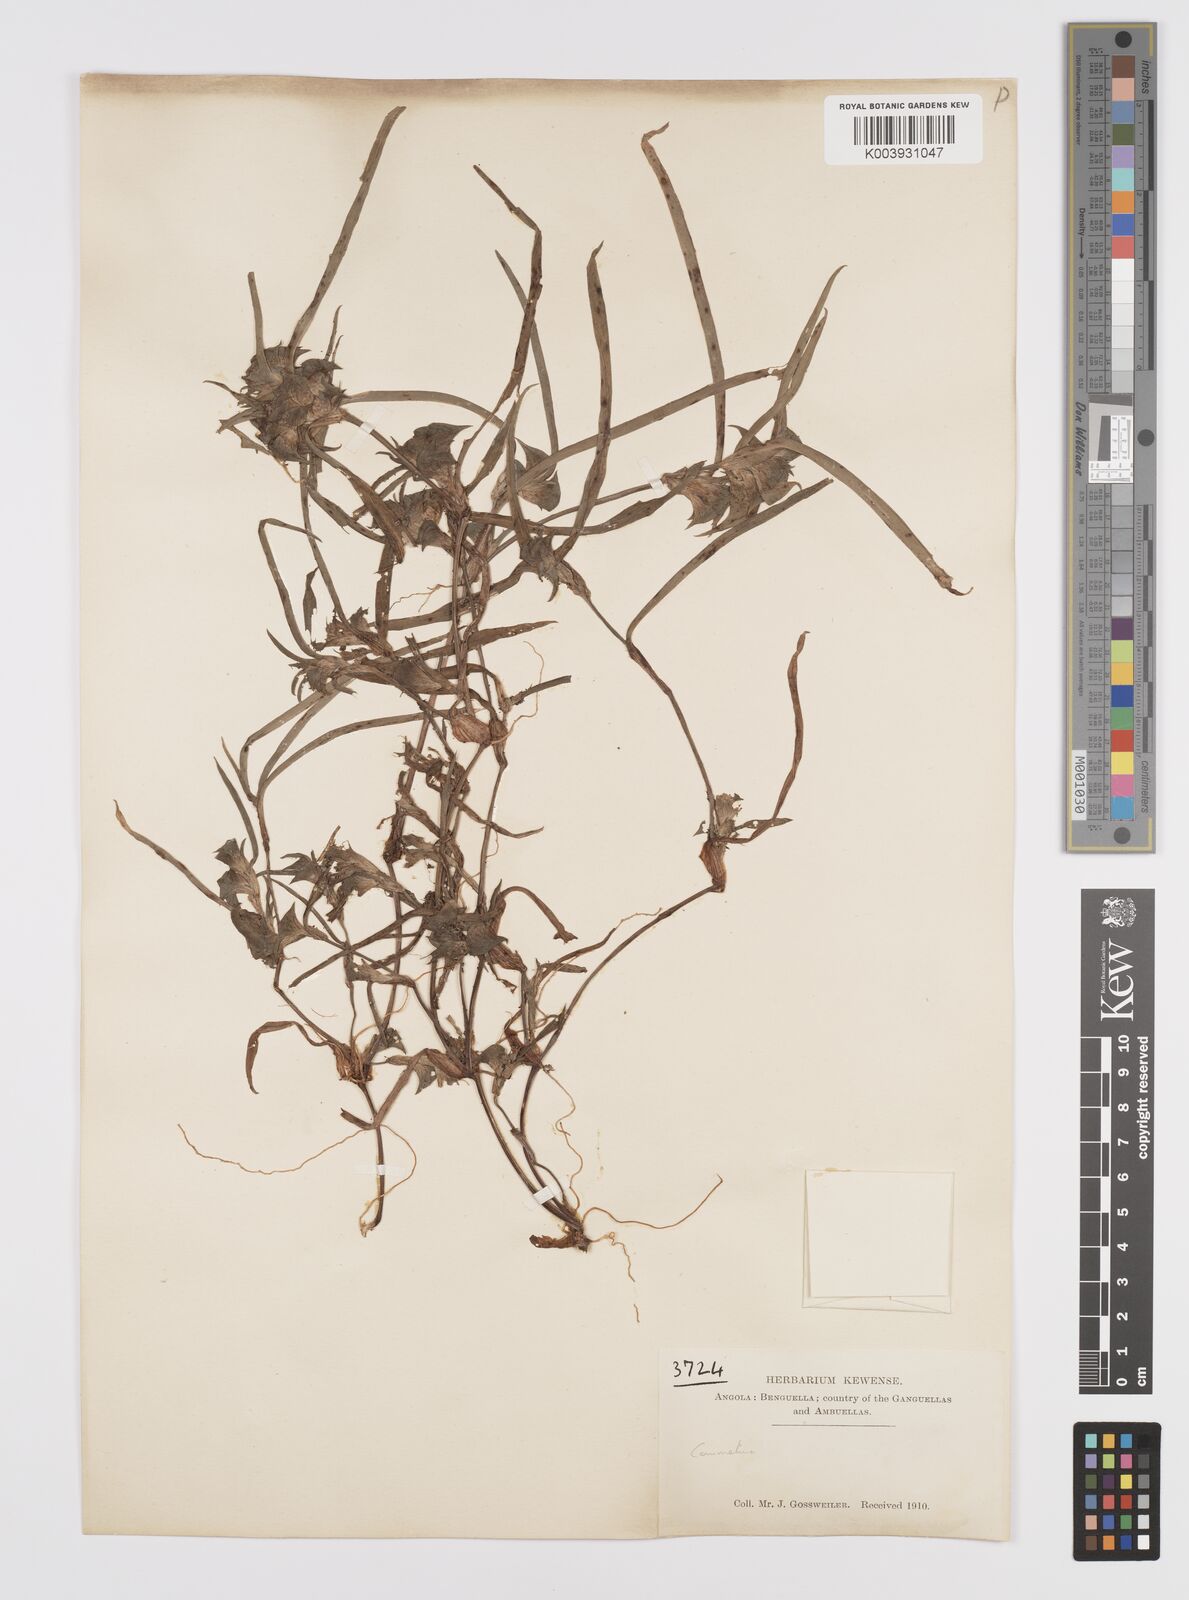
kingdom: Plantae
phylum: Tracheophyta
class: Liliopsida
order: Commelinales
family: Commelinaceae
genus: Commelina
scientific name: Commelina aspera
